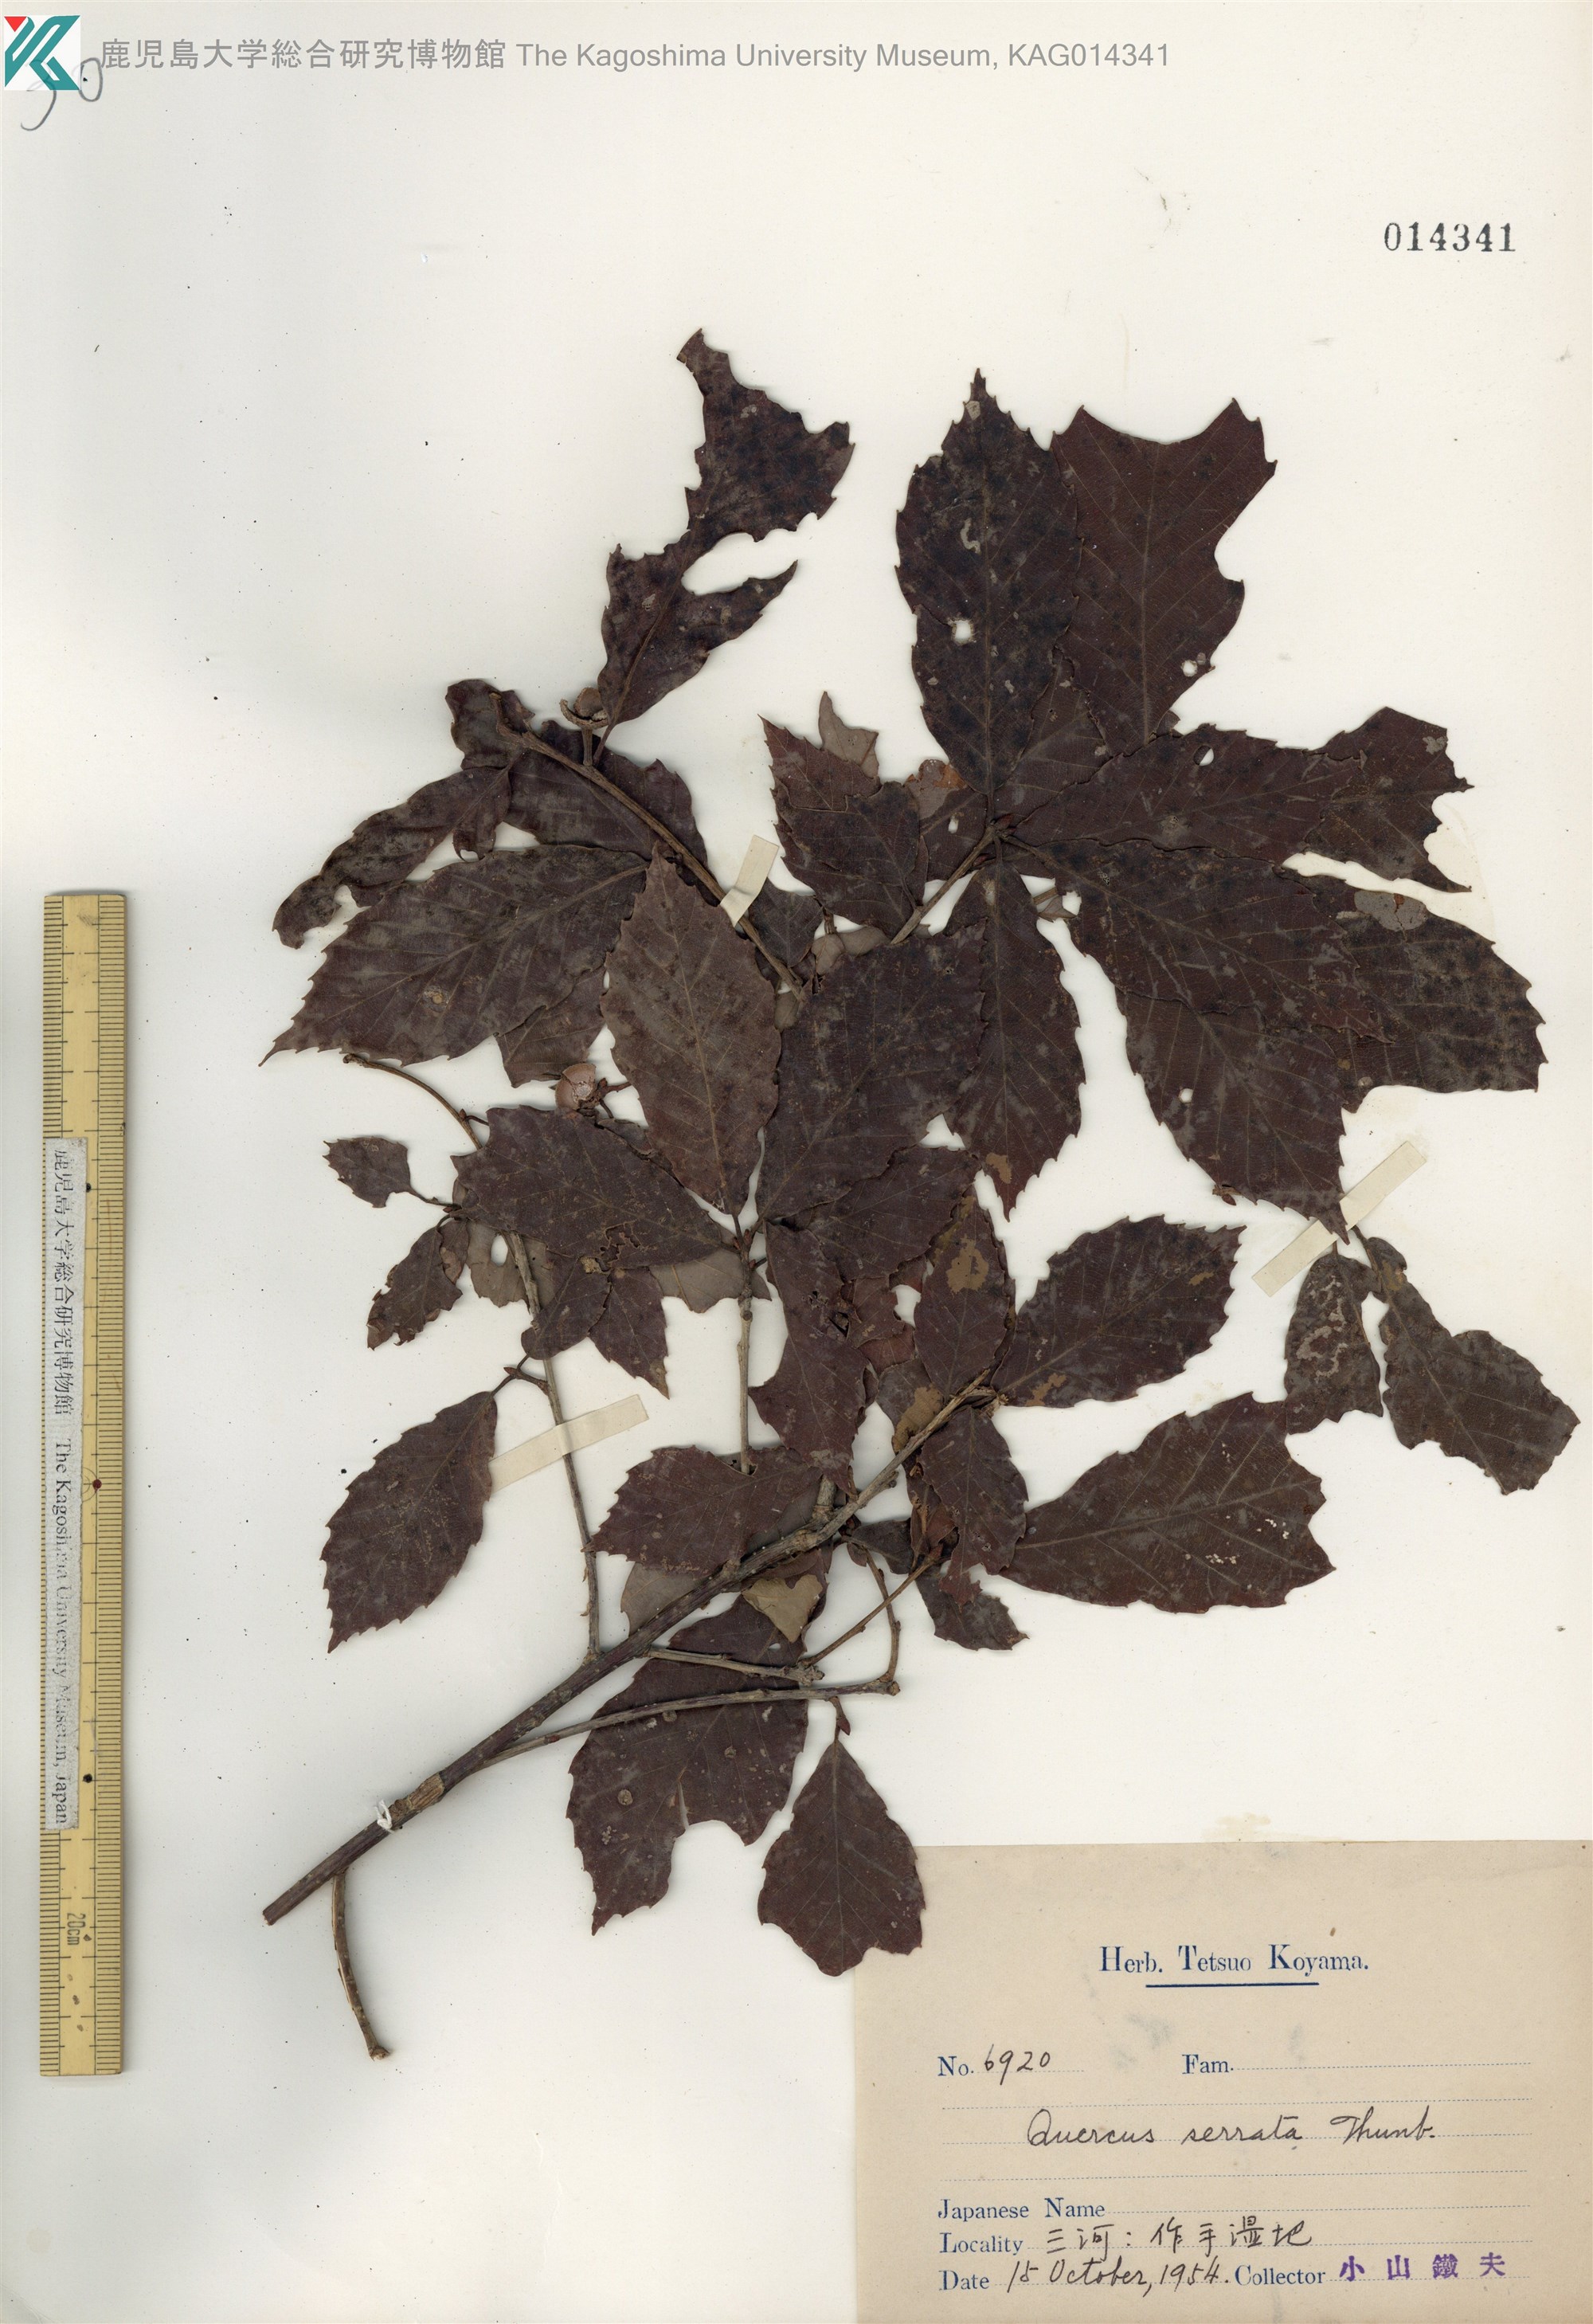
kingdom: Plantae
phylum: Tracheophyta
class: Magnoliopsida
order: Fagales
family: Fagaceae
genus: Quercus
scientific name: Quercus serrata
